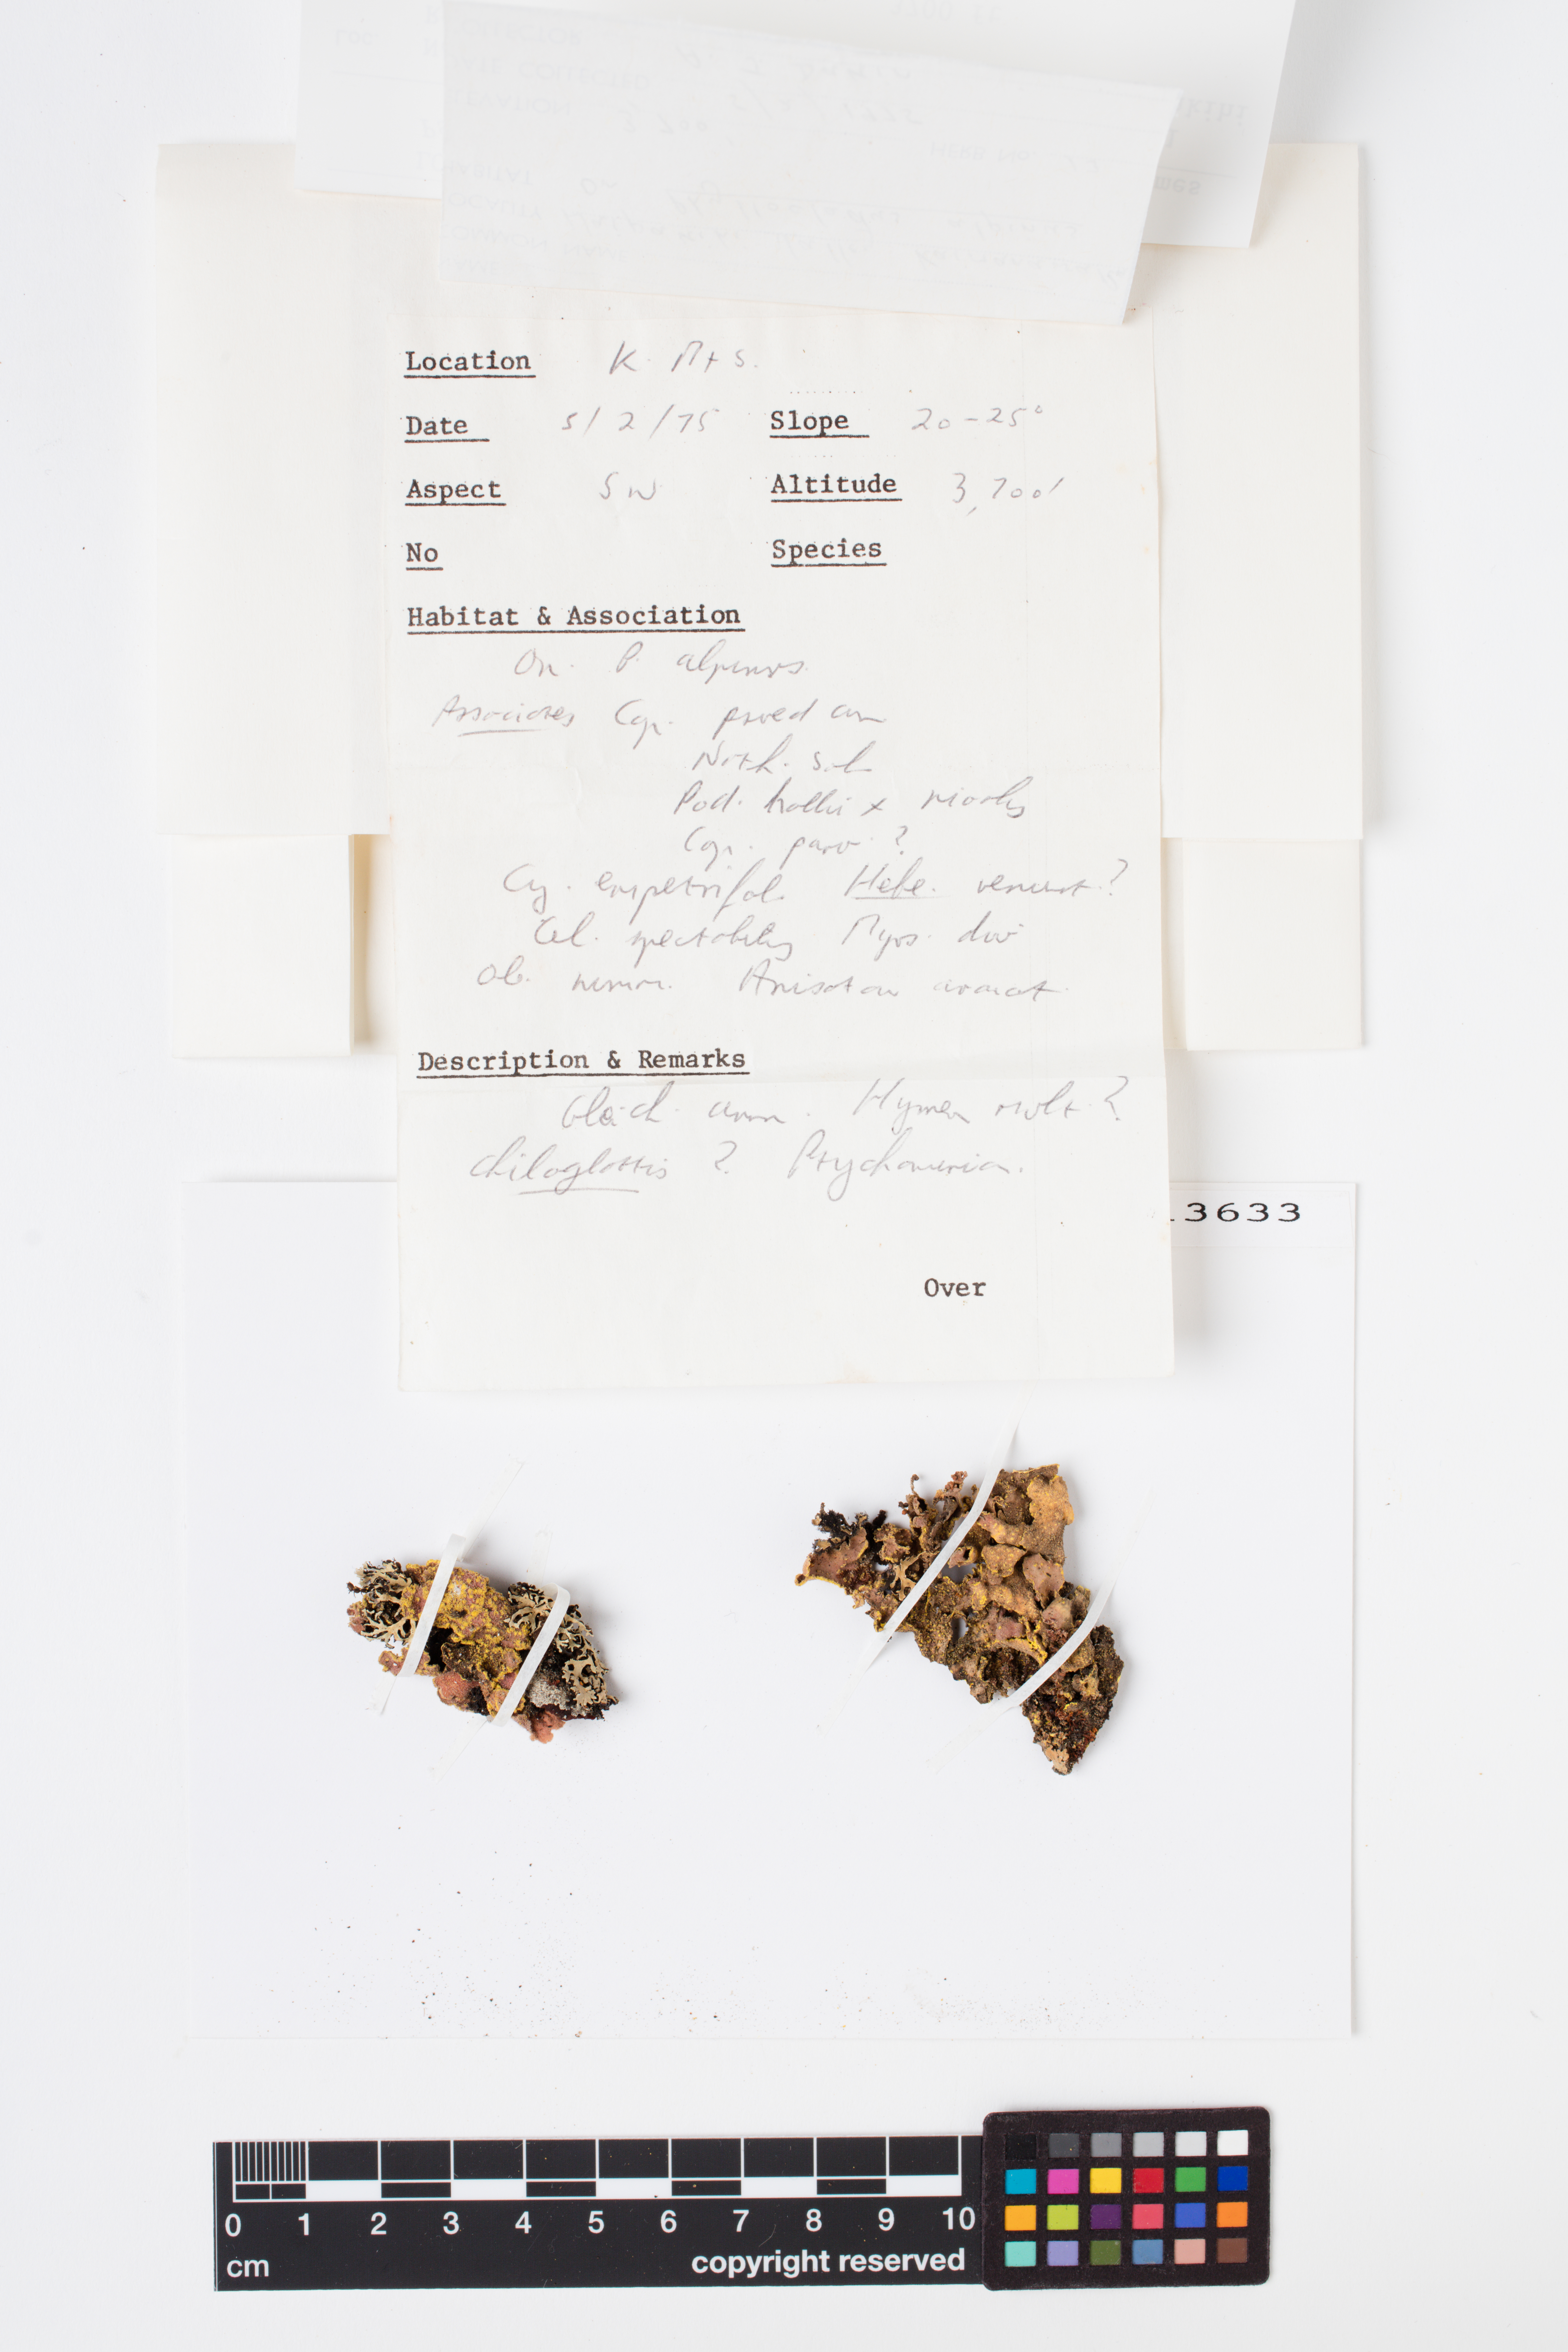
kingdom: Fungi
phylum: Ascomycota
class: Lecanoromycetes
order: Peltigerales
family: Lobariaceae
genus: Pseudocyphellaria
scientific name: Pseudocyphellaria rubella
